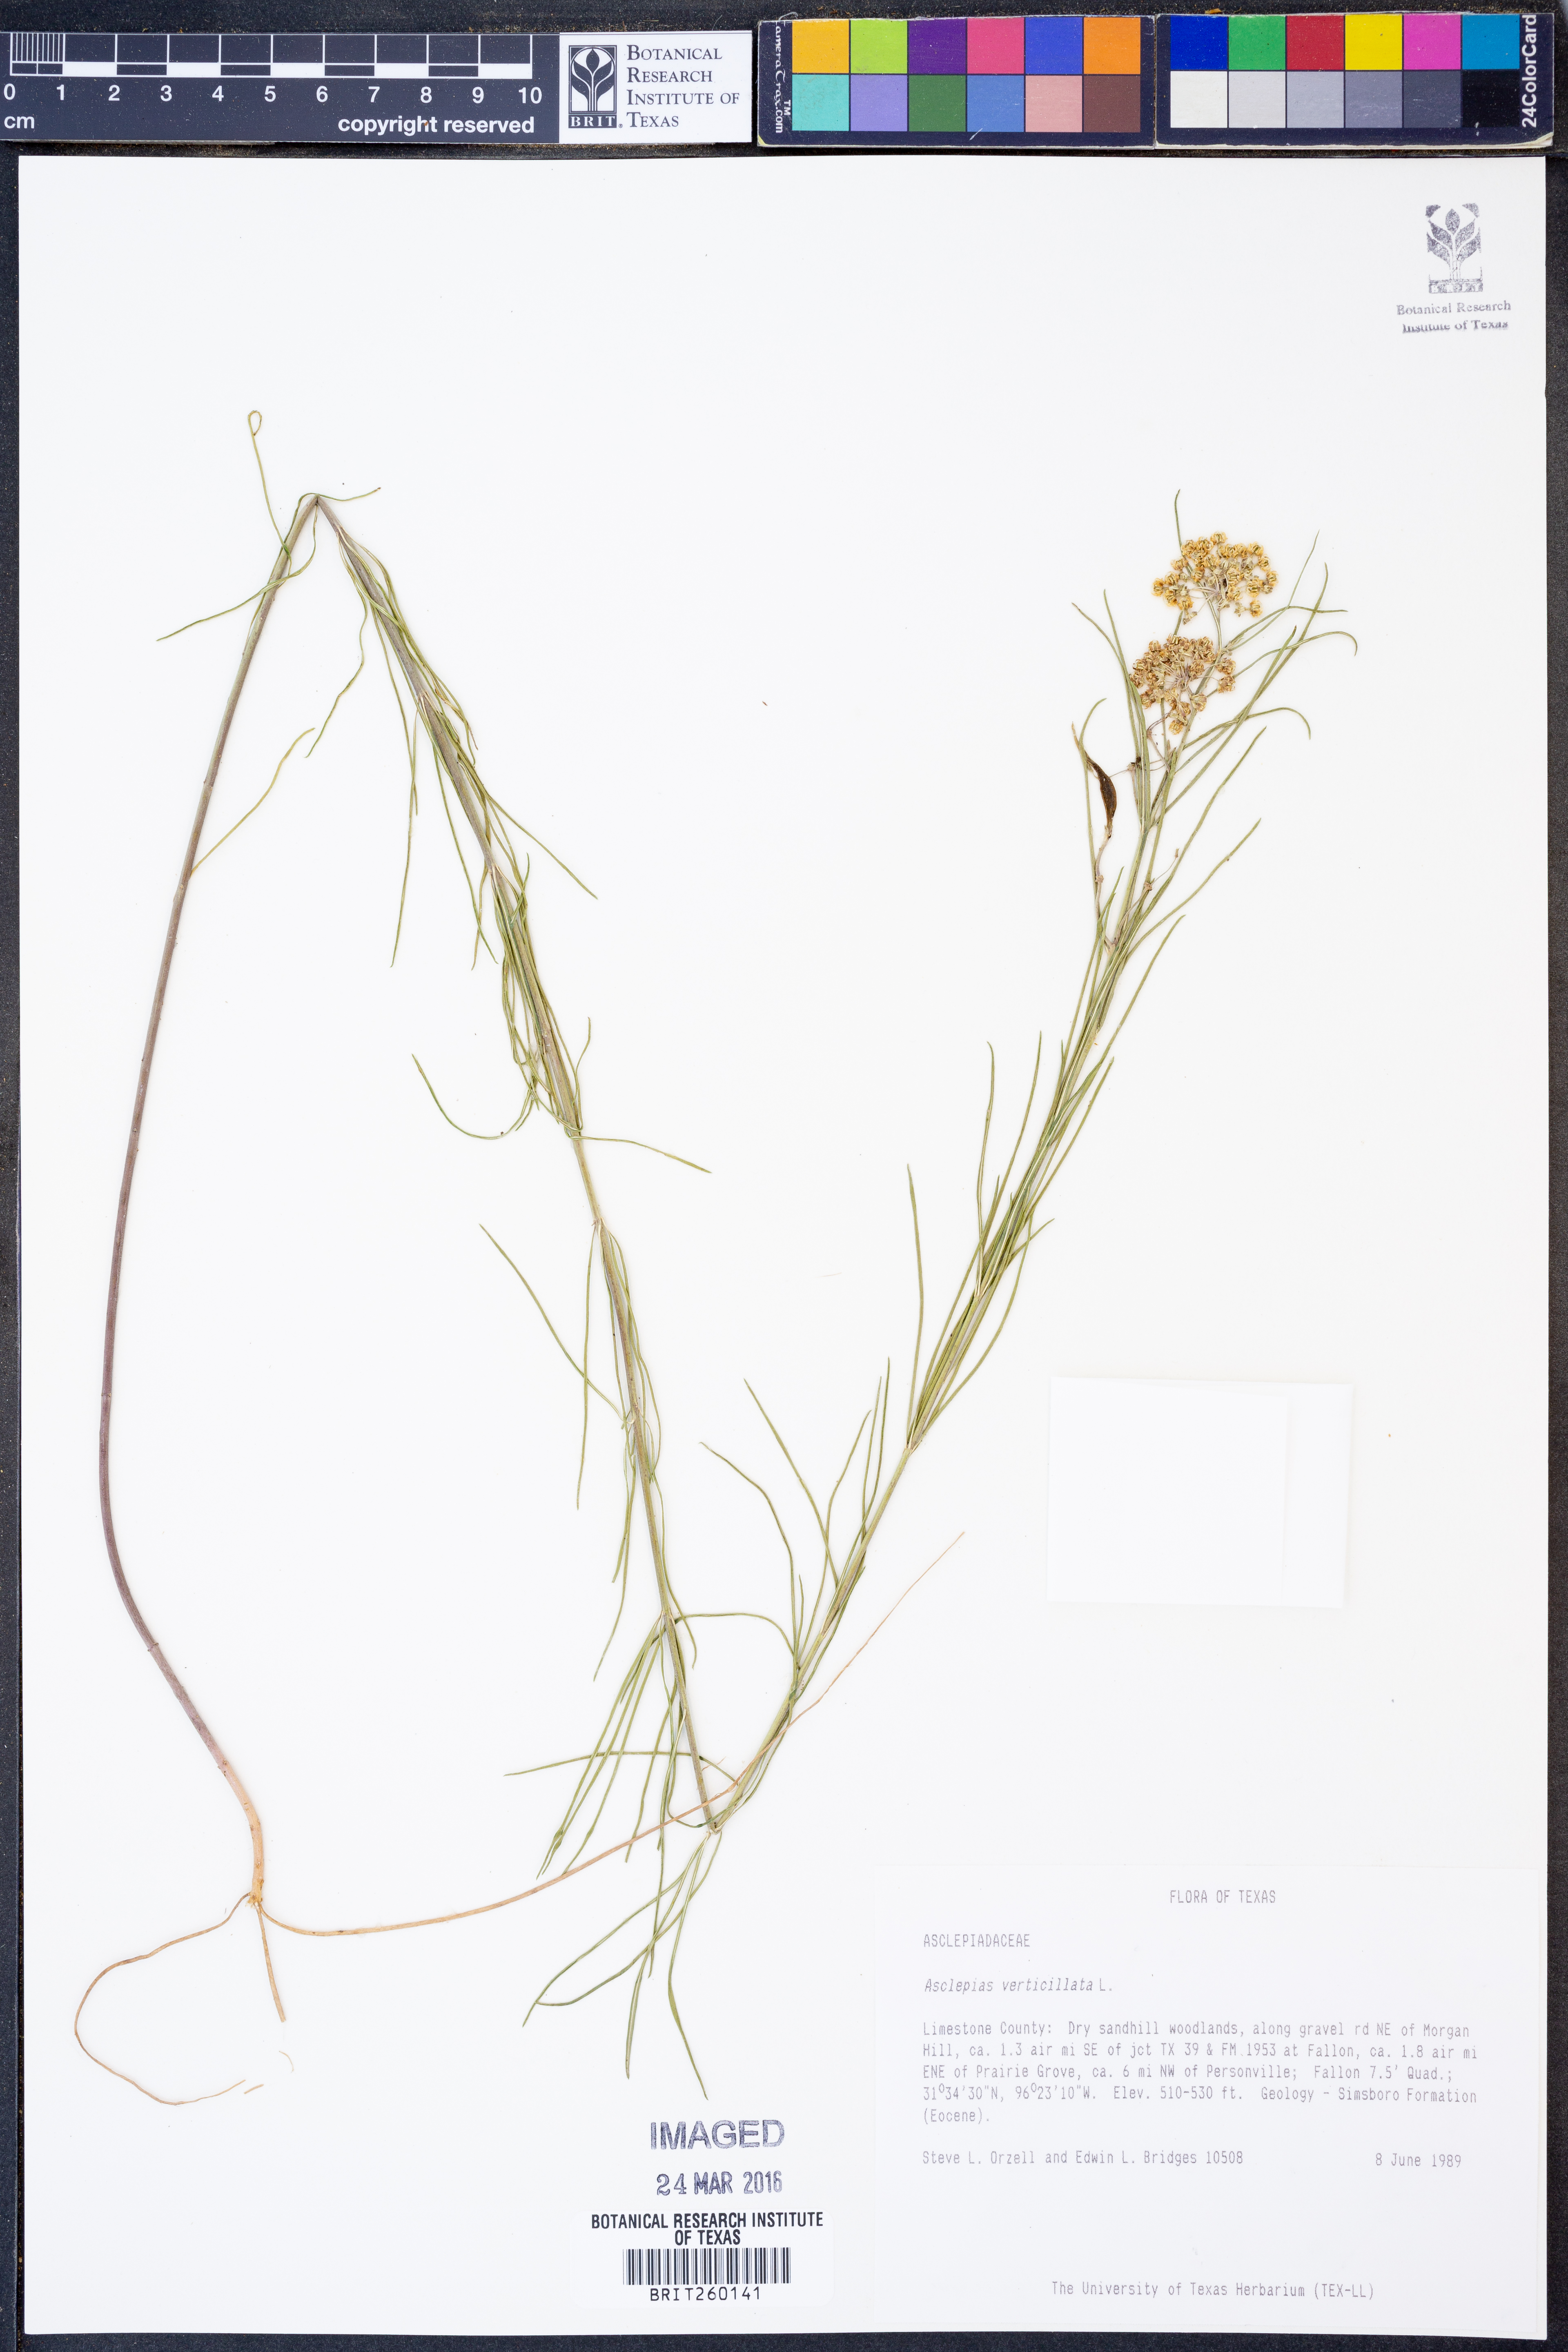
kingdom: Plantae
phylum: Tracheophyta
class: Magnoliopsida
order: Gentianales
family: Apocynaceae
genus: Asclepias
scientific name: Asclepias verticillata
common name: Eastern whorled milkweed
